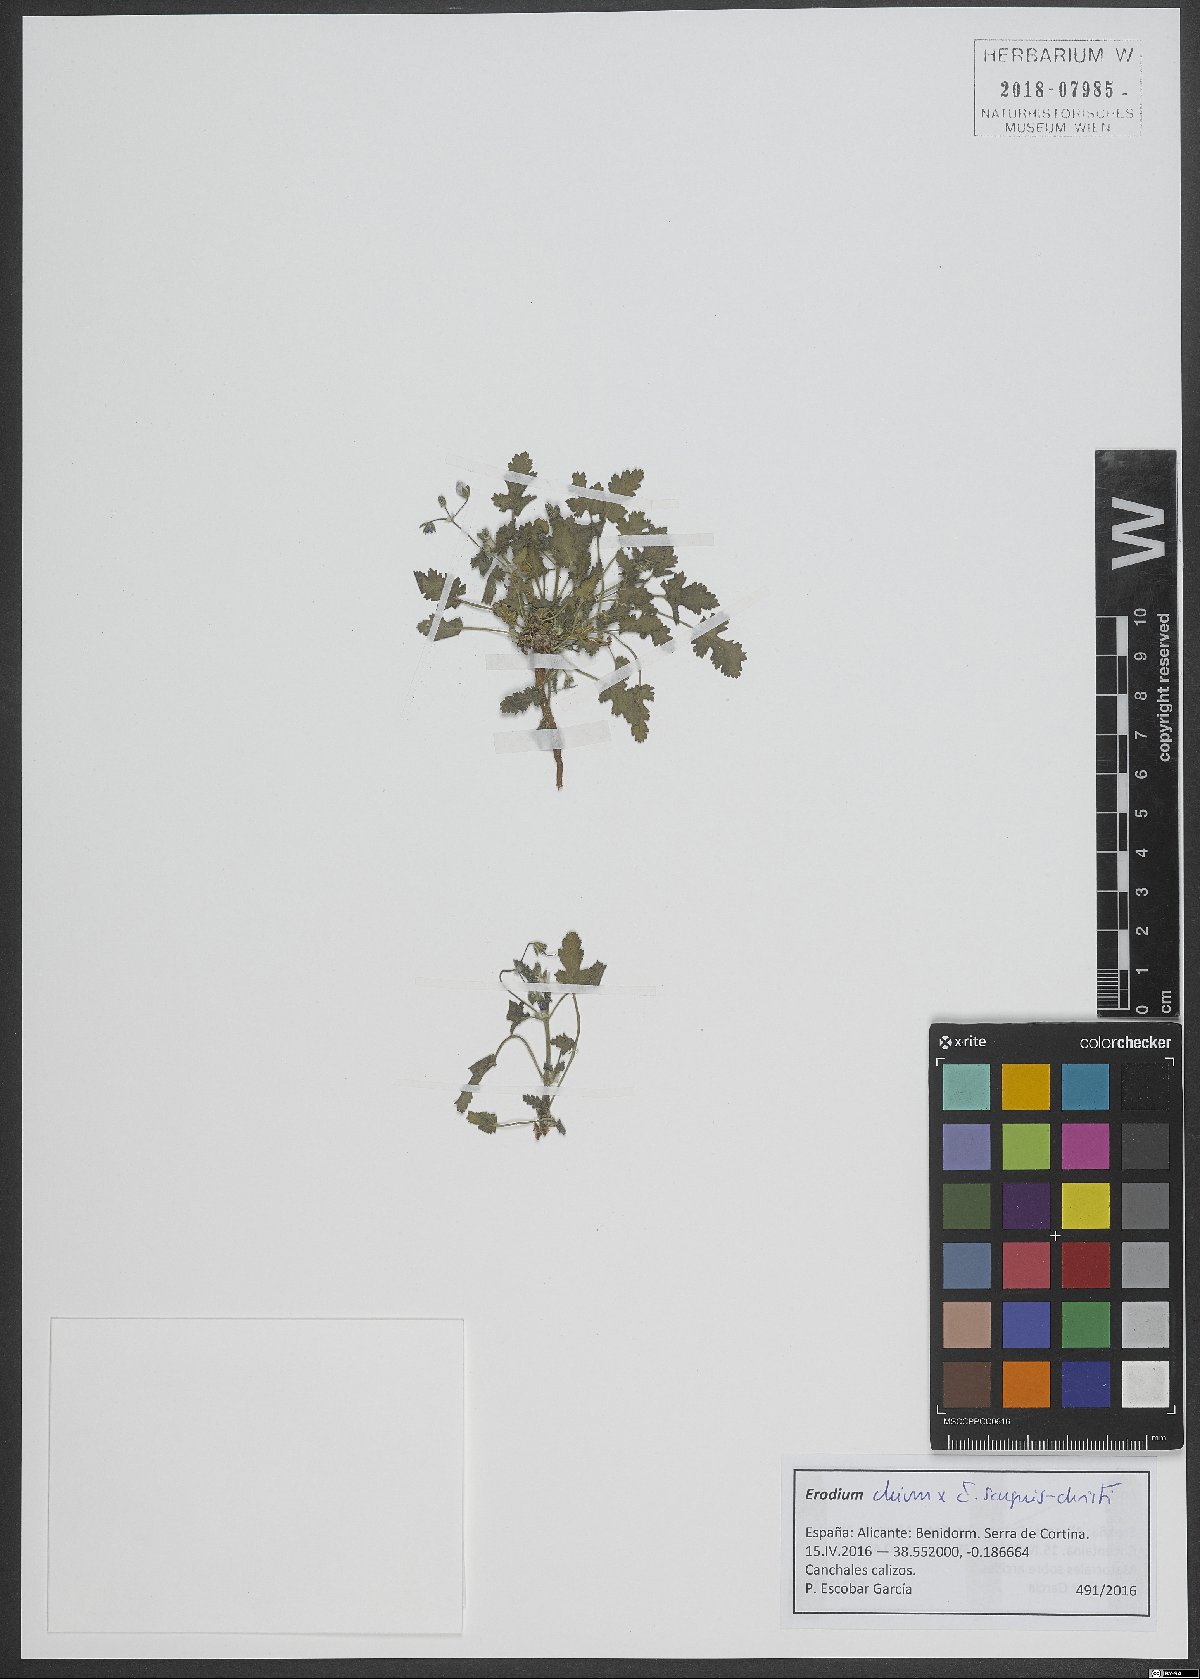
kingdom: Plantae
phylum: Tracheophyta
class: Magnoliopsida
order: Geraniales
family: Geraniaceae
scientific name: Geraniaceae
